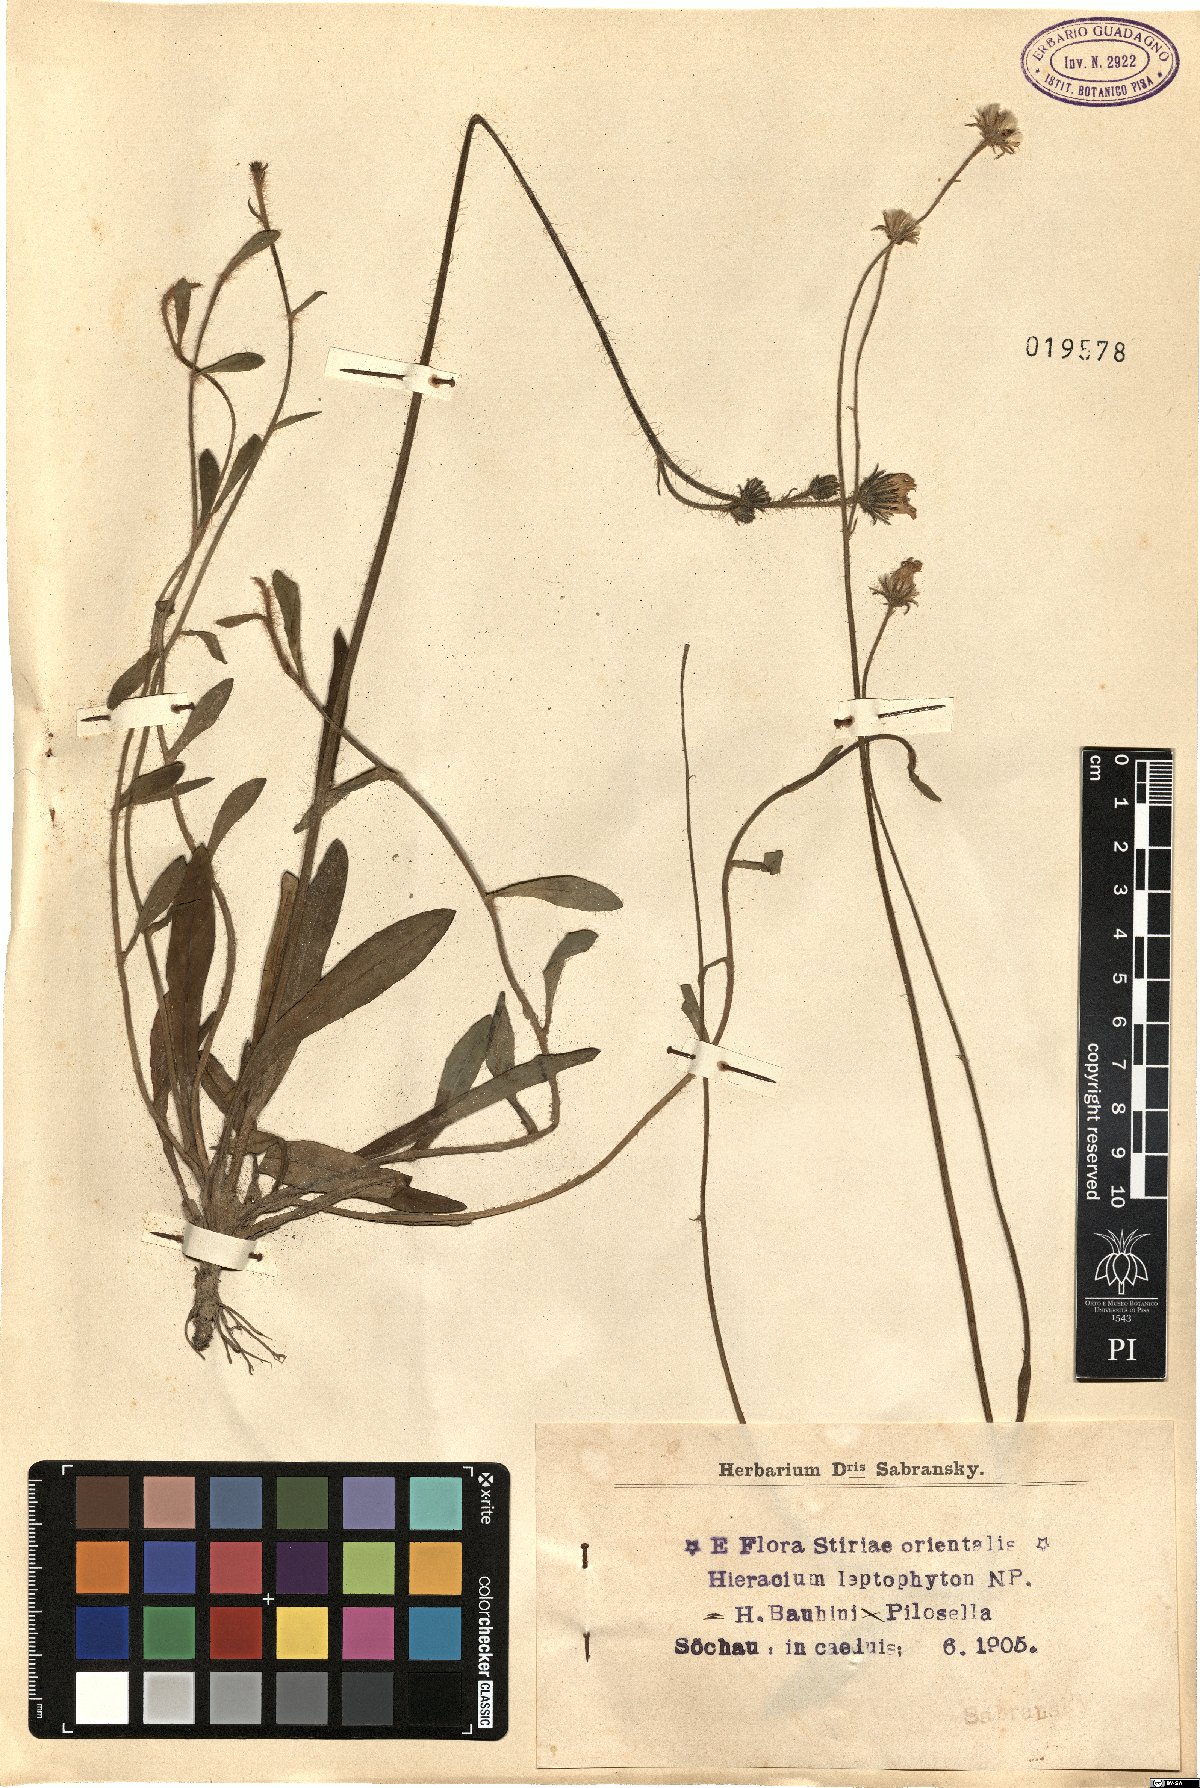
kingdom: Plantae
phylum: Tracheophyta
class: Magnoliopsida
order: Asterales
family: Asteraceae
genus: Pilosella
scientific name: Pilosella leptophyton
